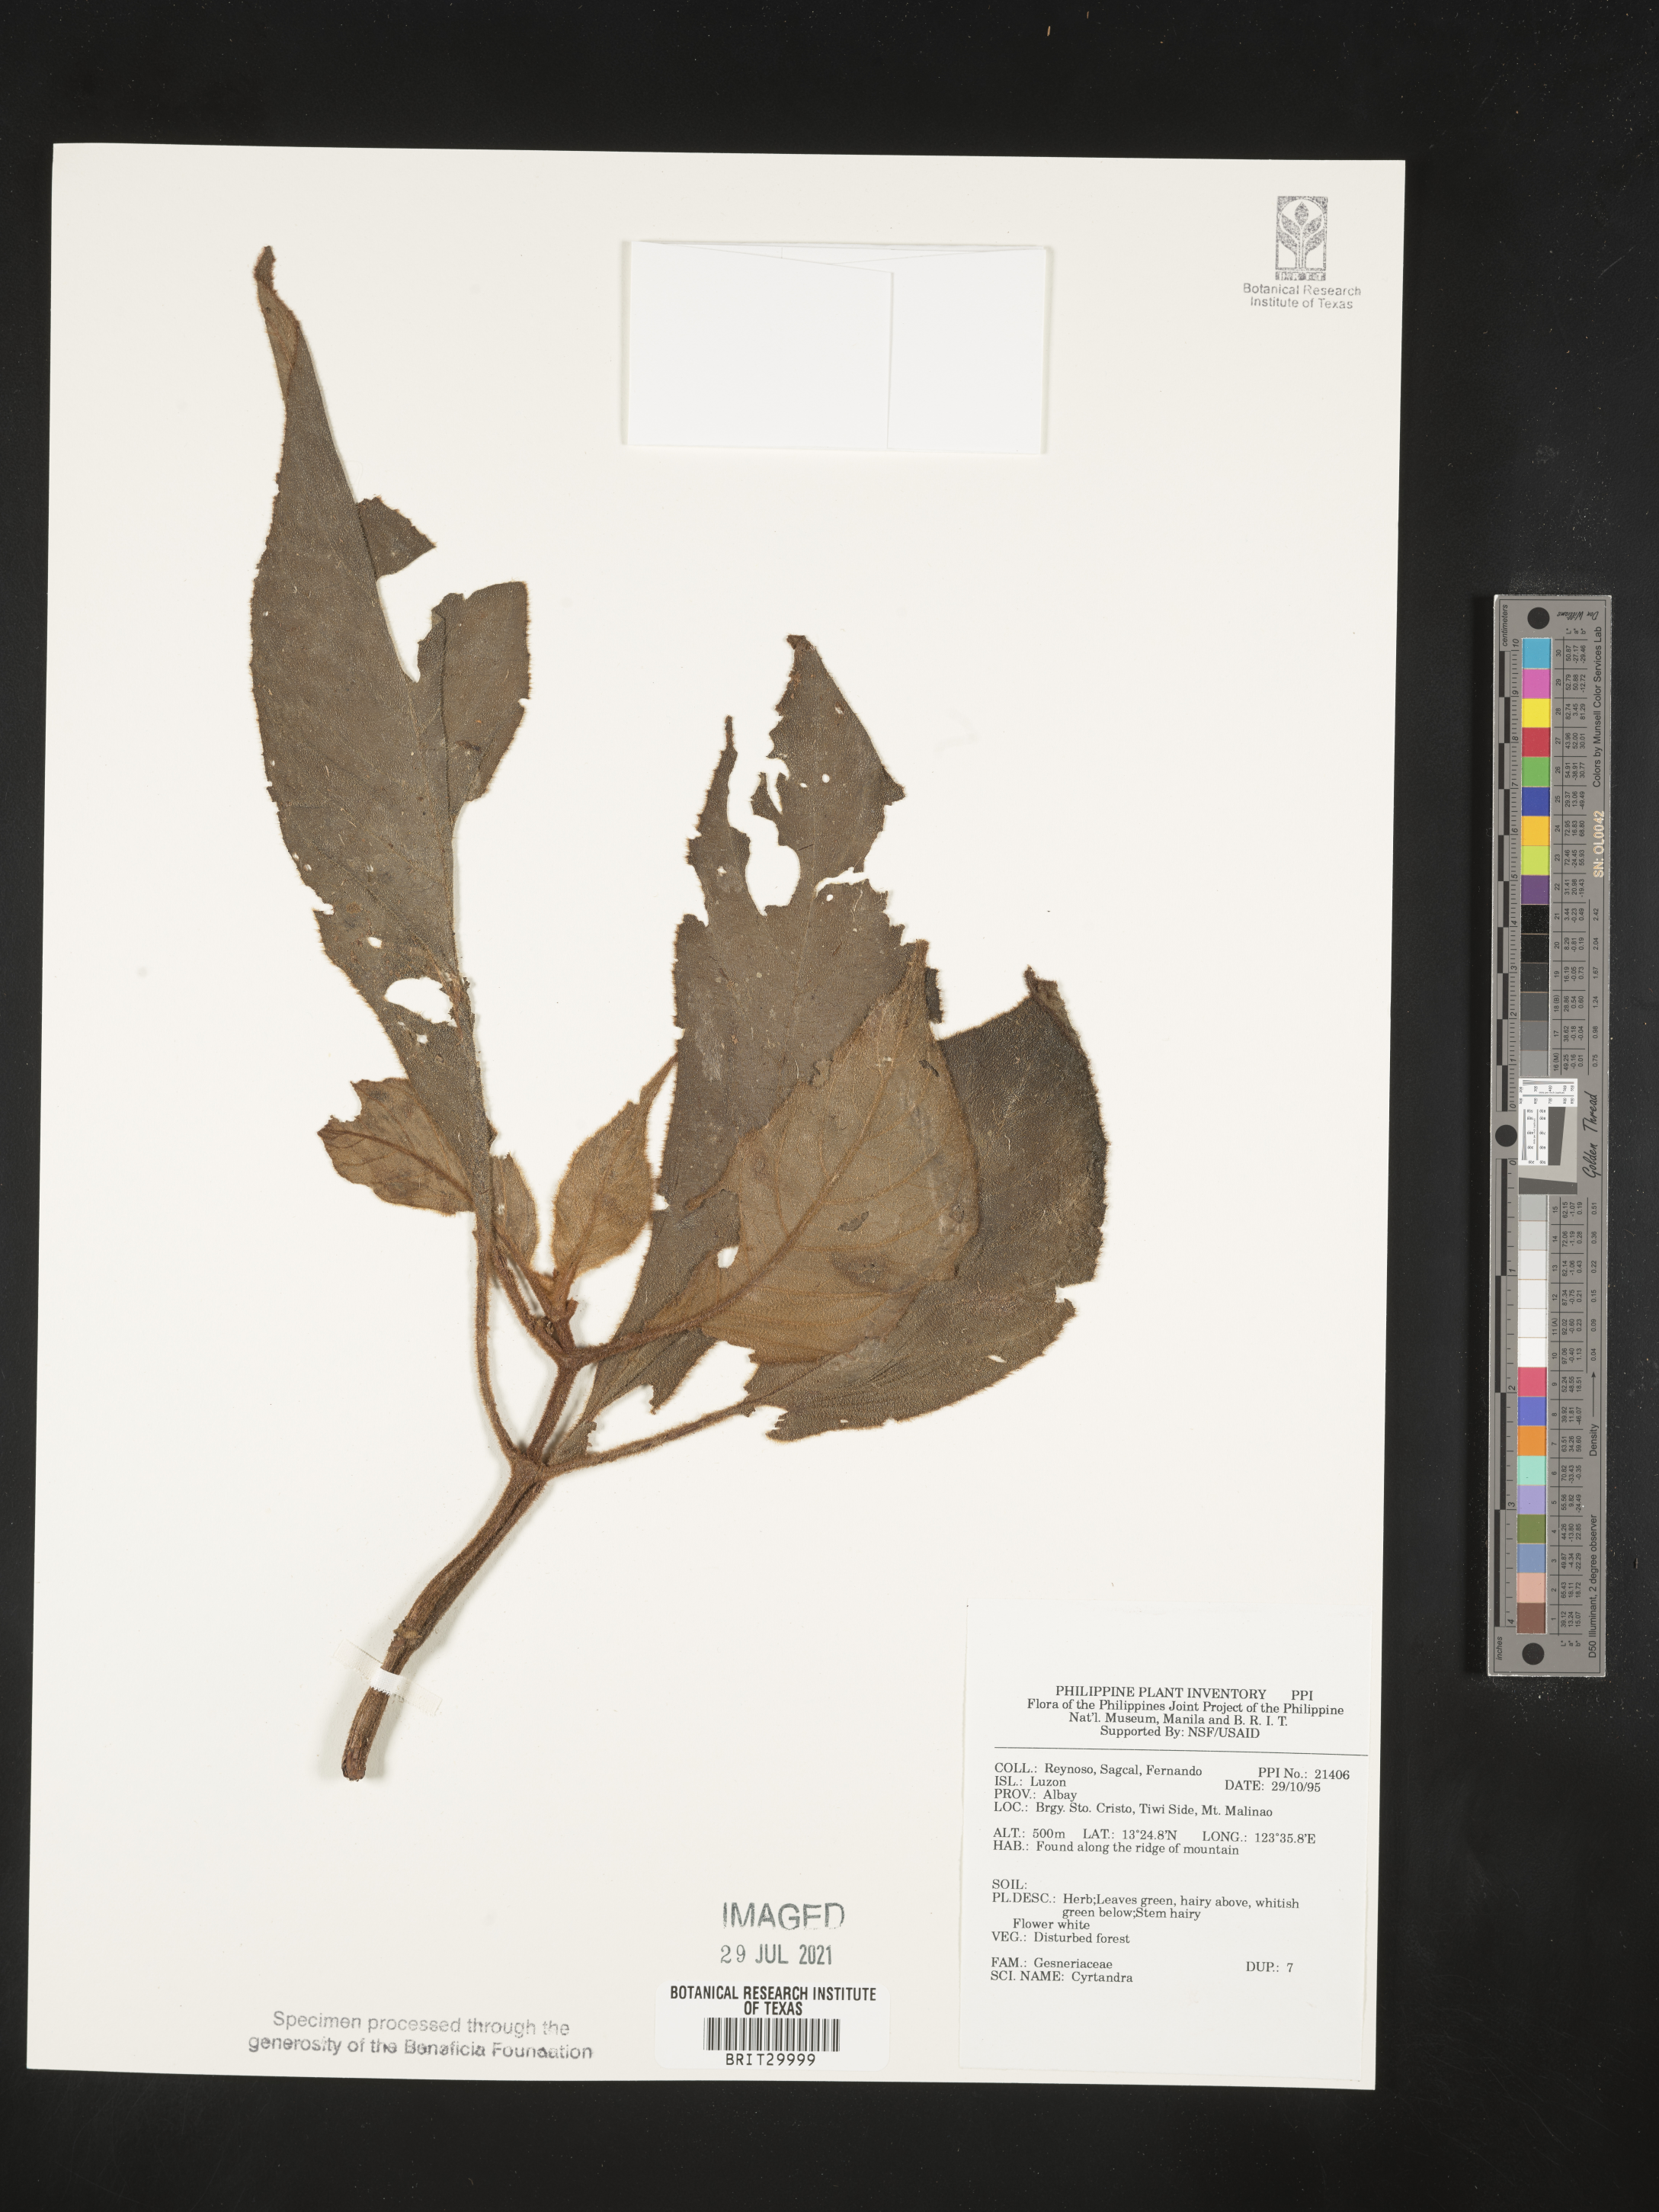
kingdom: Plantae
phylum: Tracheophyta
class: Magnoliopsida
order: Lamiales
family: Gesneriaceae
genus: Cyrtandra
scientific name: Cyrtandra
